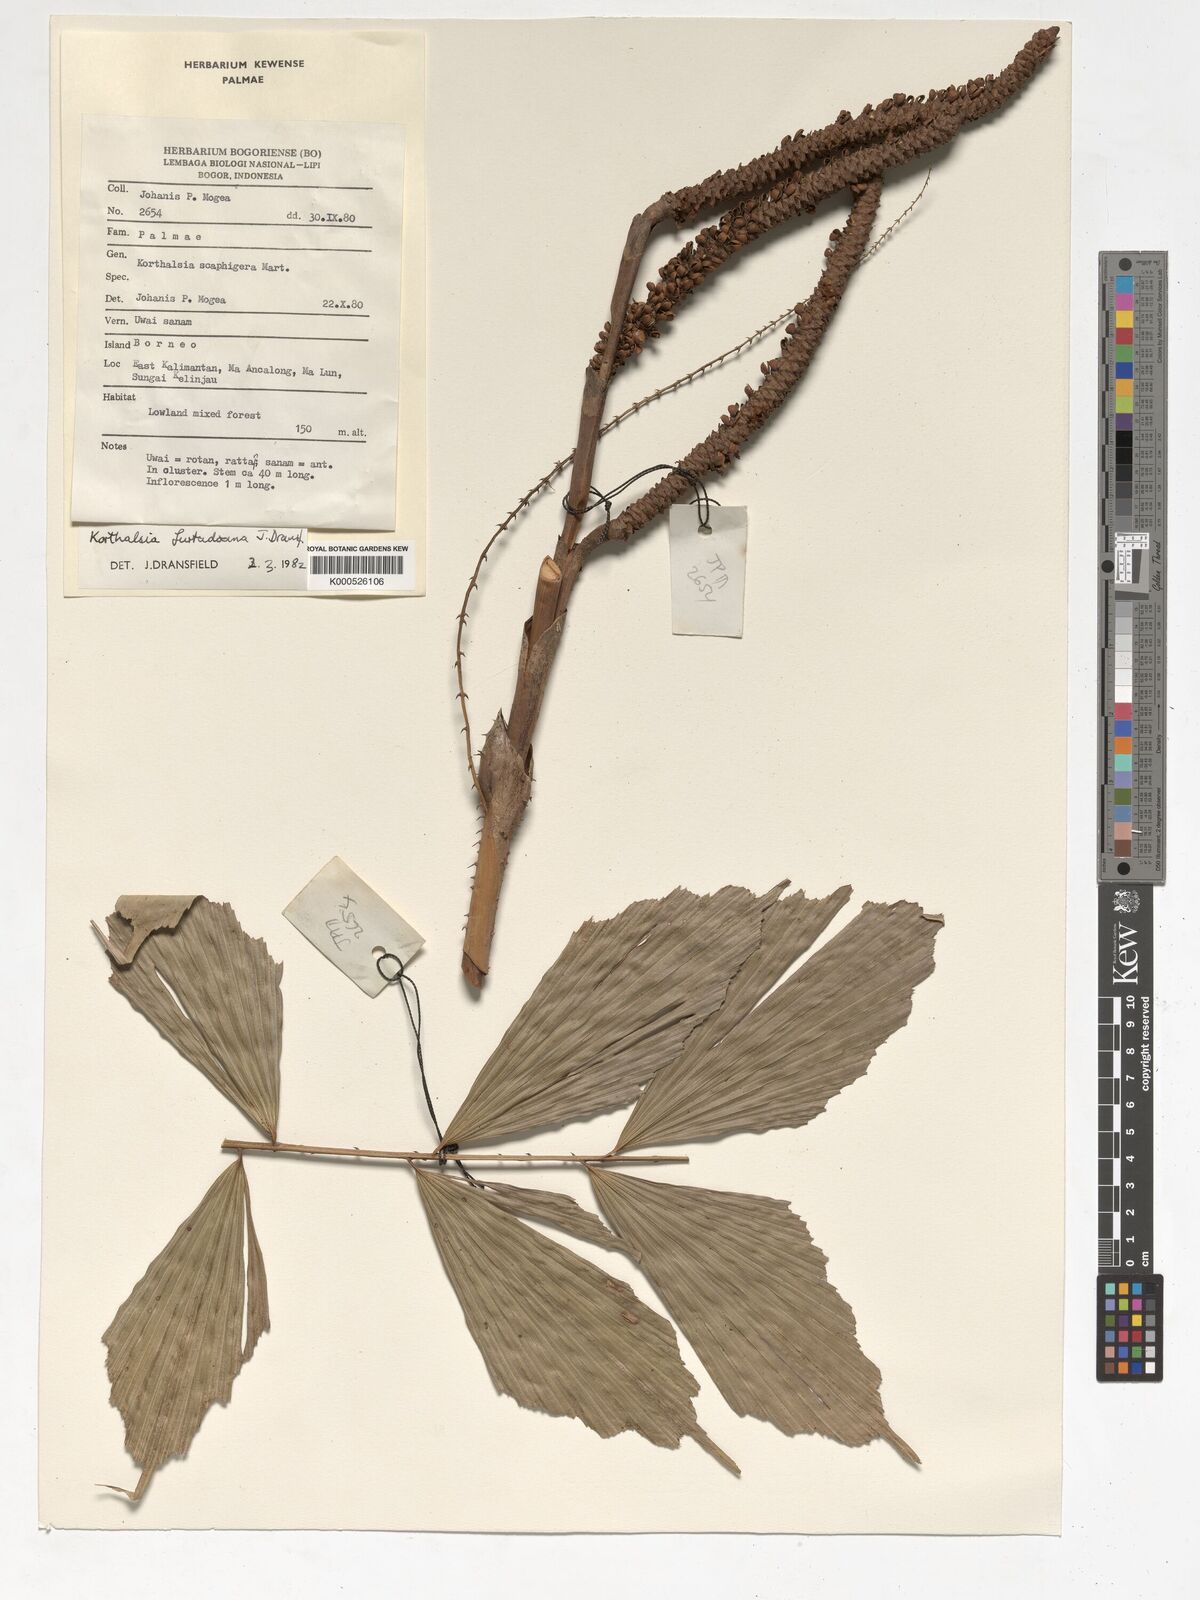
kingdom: Plantae
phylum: Tracheophyta
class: Liliopsida
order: Arecales
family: Arecaceae
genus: Korthalsia
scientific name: Korthalsia furtadoana
